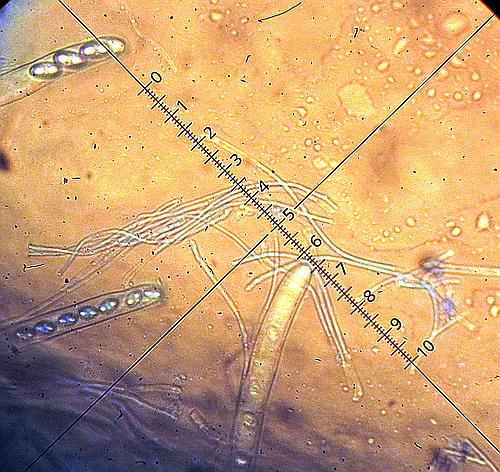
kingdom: Fungi
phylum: Ascomycota
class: Pezizomycetes
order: Pezizales
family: Pyronemataceae
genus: Tarzetta
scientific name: Tarzetta cupularis
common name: gulbrun pokalbæger
